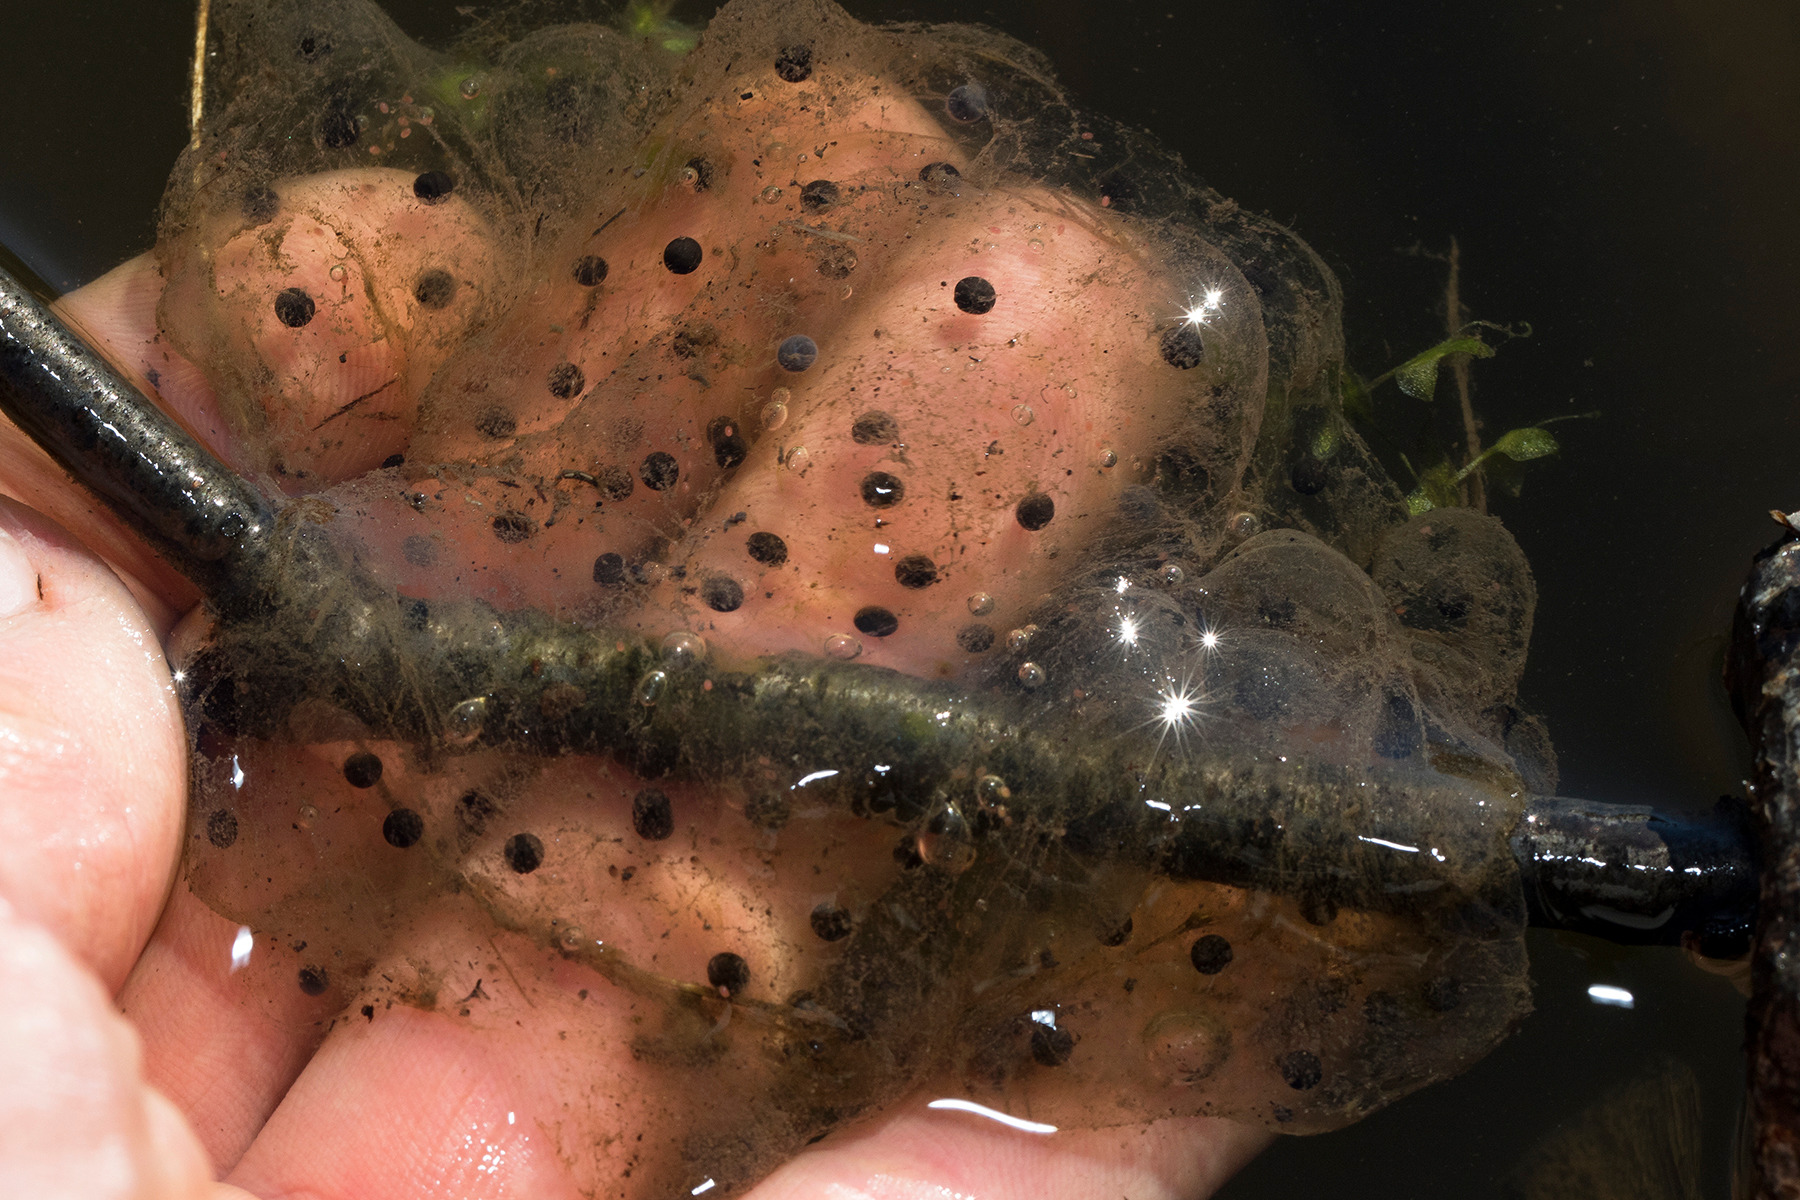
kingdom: Animalia
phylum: Chordata
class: Amphibia
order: Anura
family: Ranidae
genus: Rana
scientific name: Rana dalmatina
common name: Springfrø
